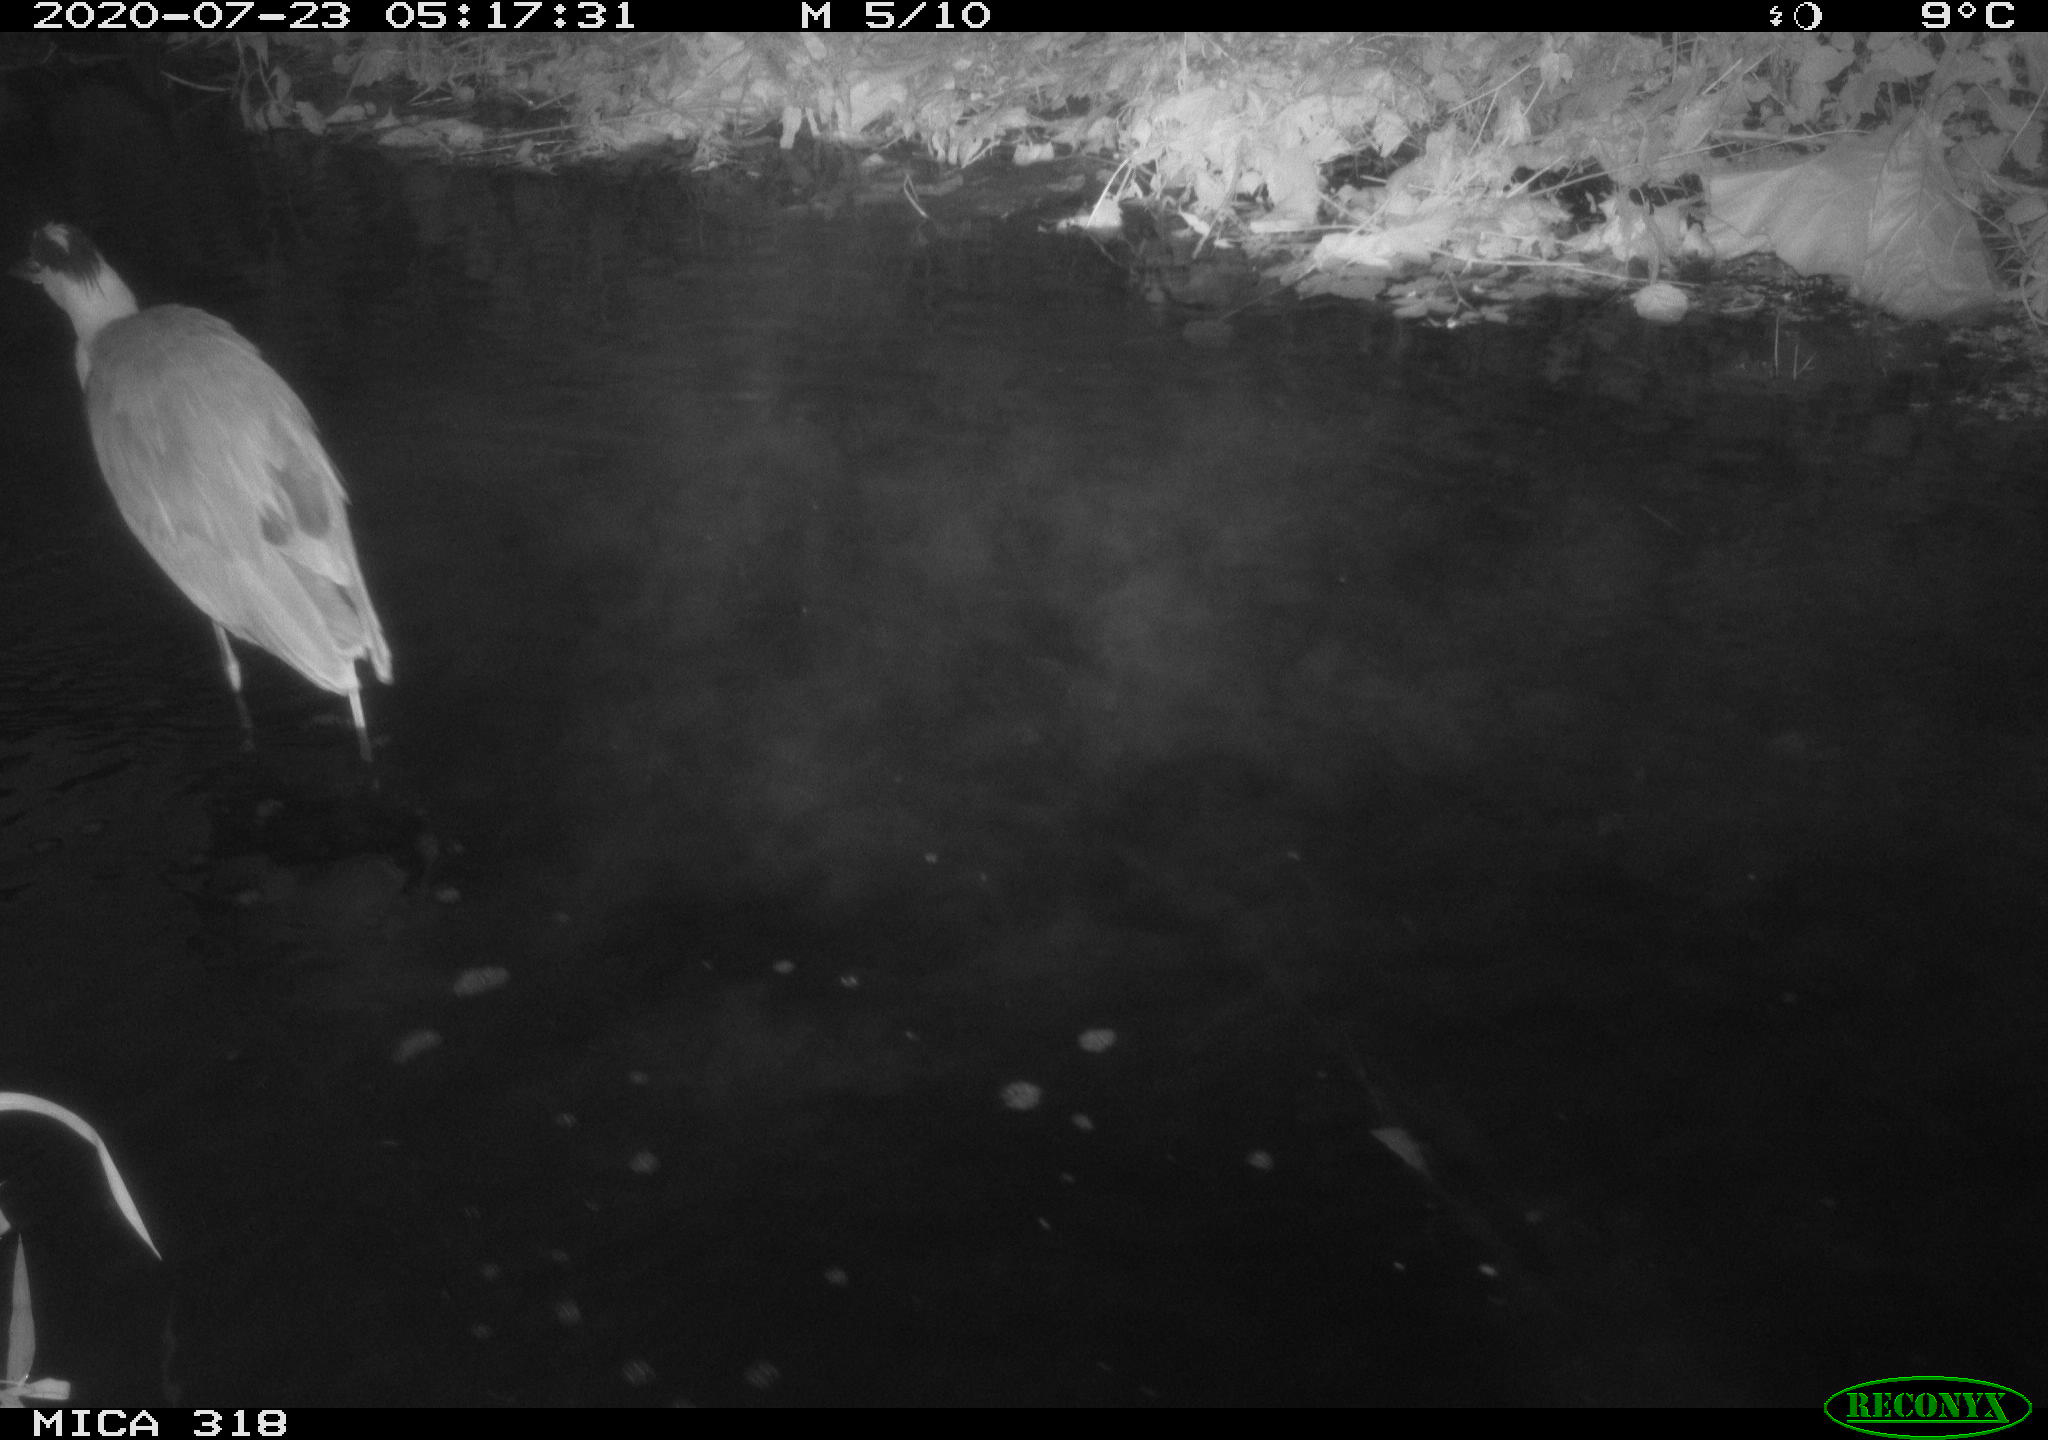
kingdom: Animalia
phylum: Chordata
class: Aves
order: Pelecaniformes
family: Ardeidae
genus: Ardea
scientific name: Ardea cinerea
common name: Grey heron
